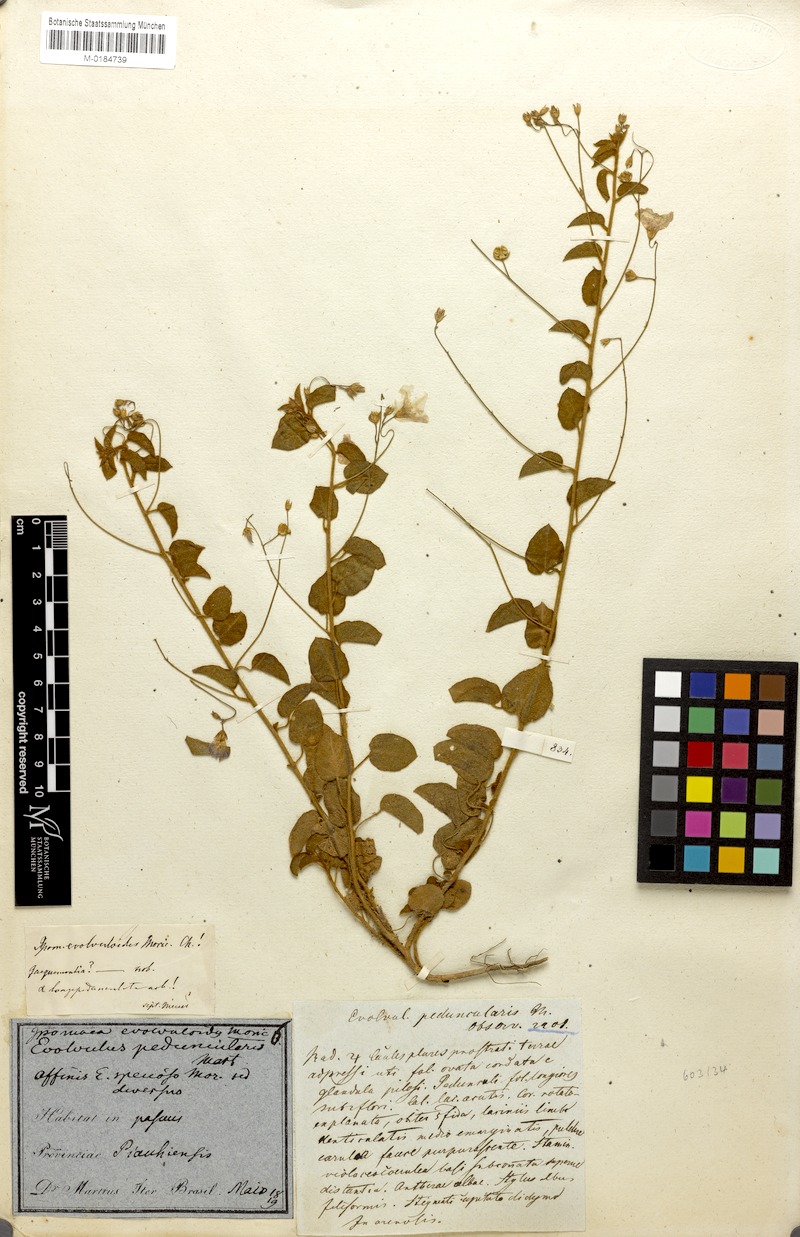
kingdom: Plantae
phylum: Tracheophyta
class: Magnoliopsida
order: Solanales
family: Convolvulaceae
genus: Jacquemontia
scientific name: Jacquemontia evolvuloides
